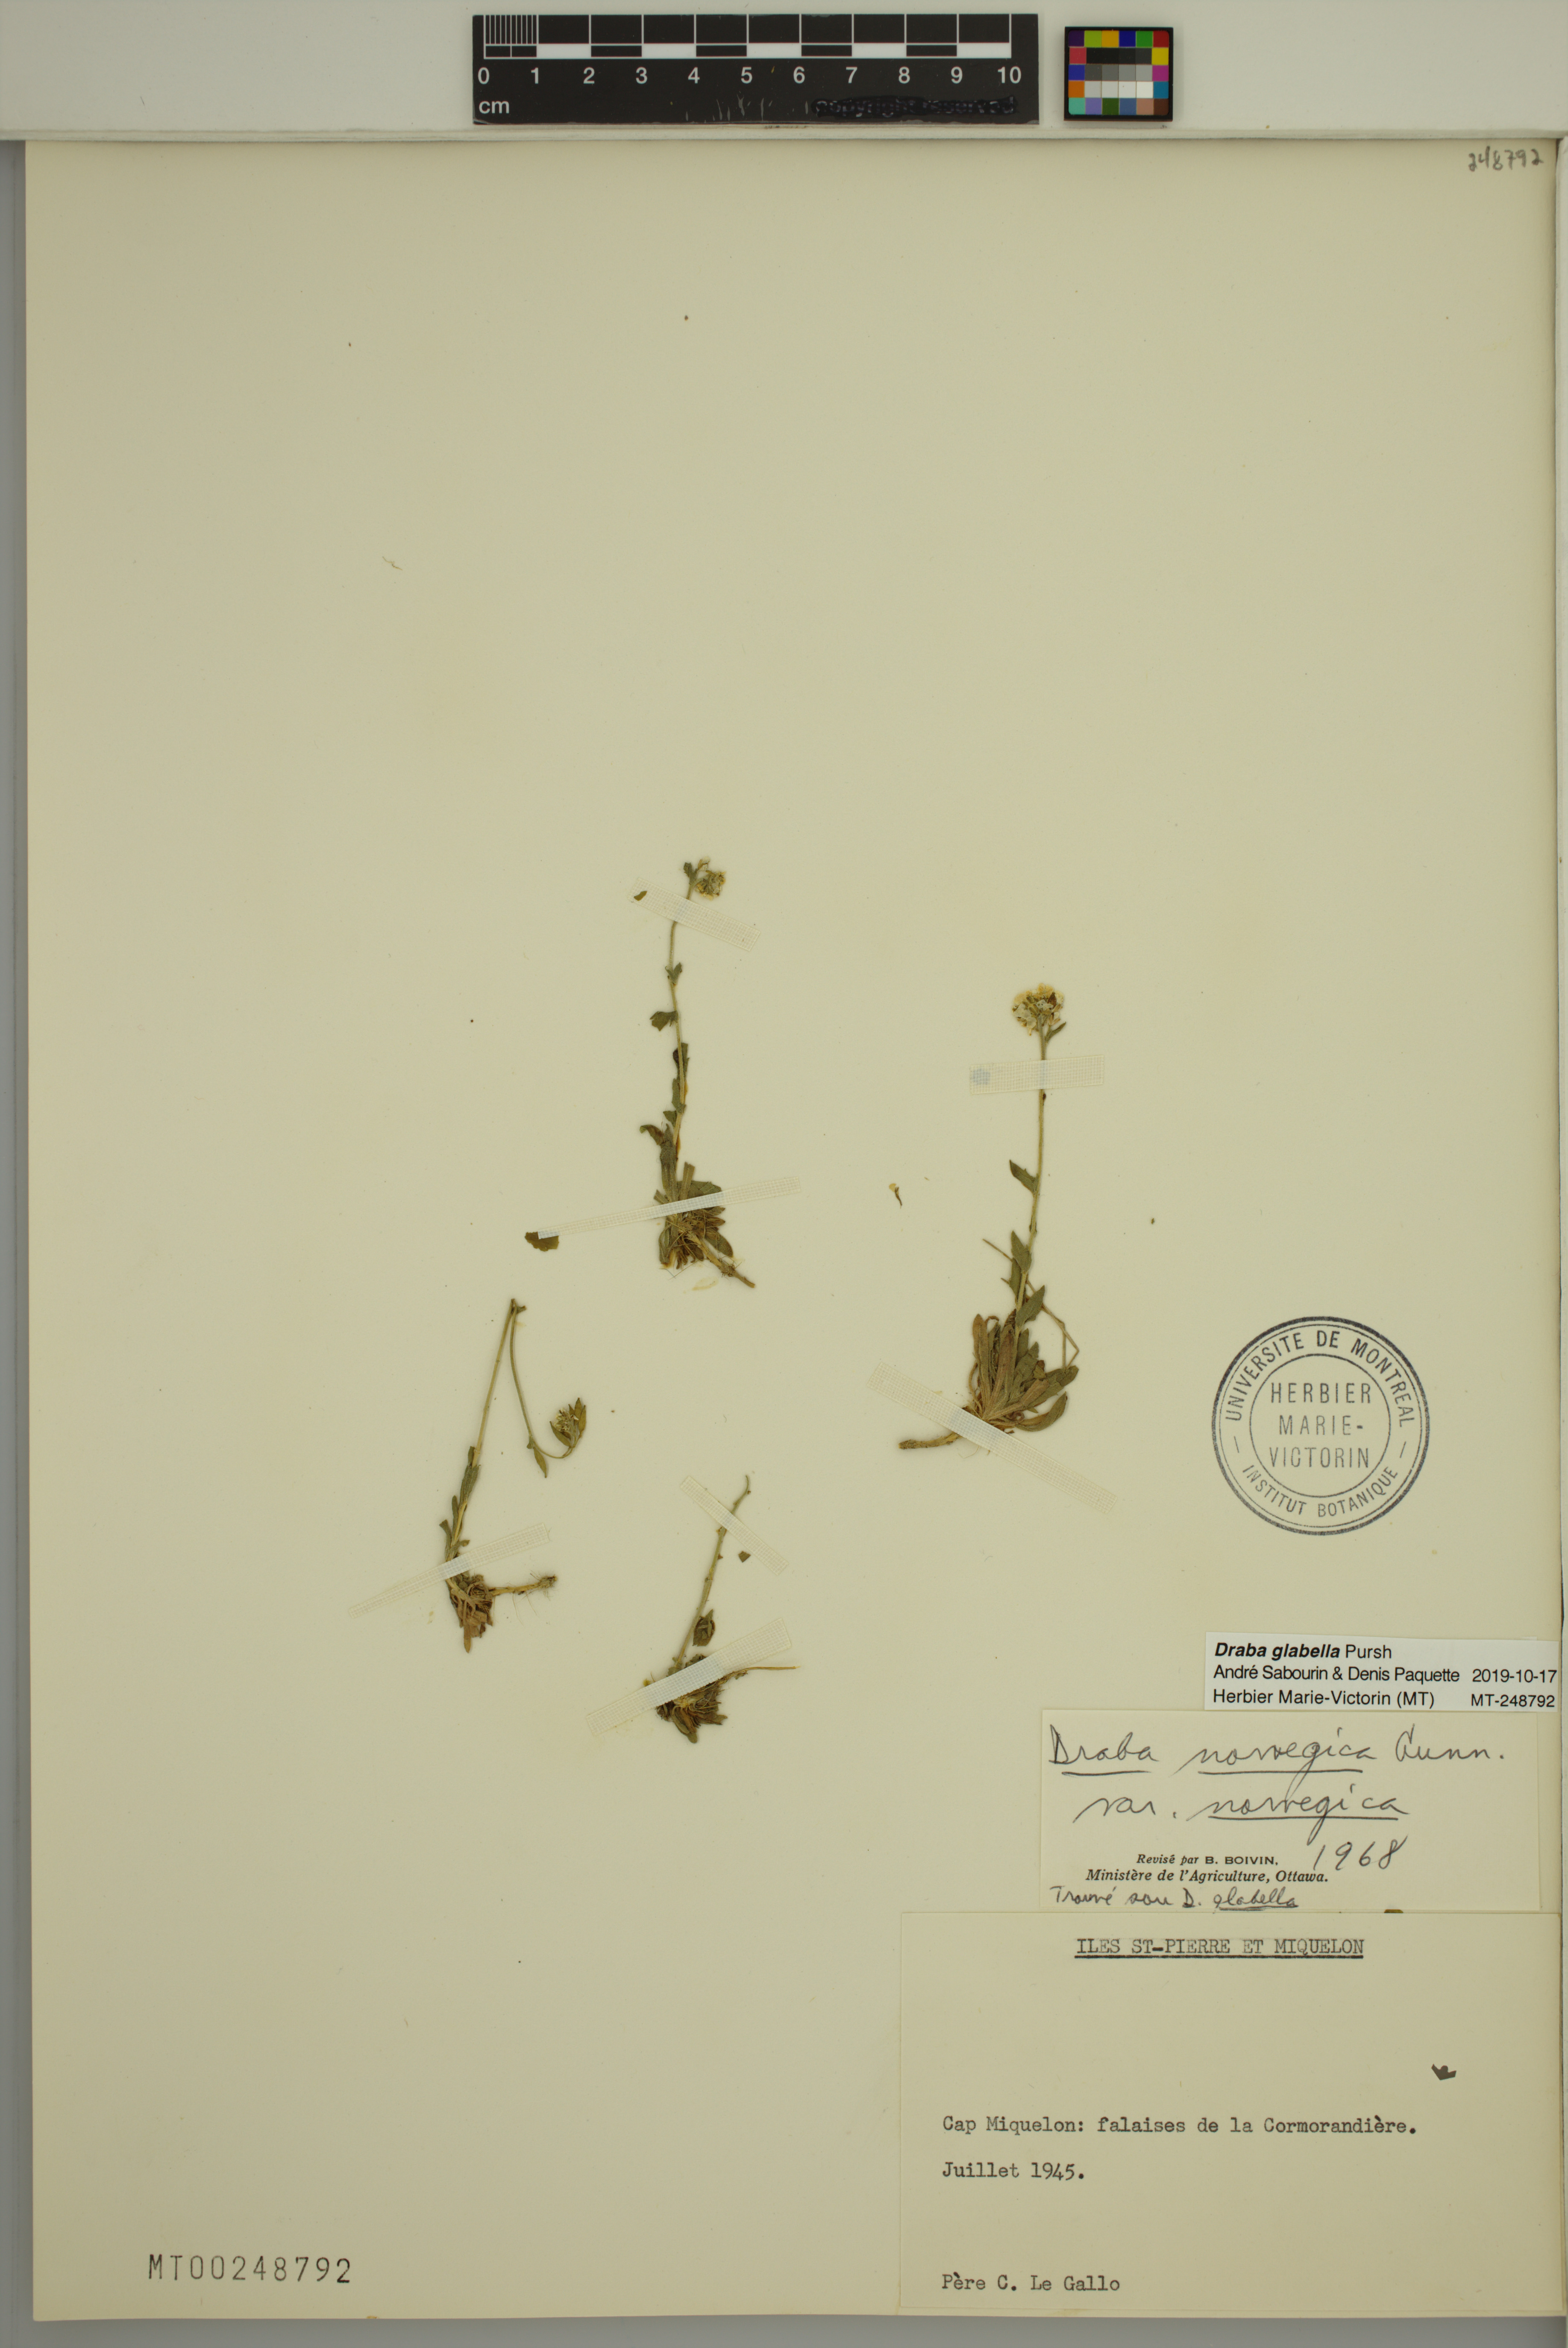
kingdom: Plantae
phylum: Tracheophyta
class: Magnoliopsida
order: Brassicales
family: Brassicaceae
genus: Draba
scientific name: Draba glabella
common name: Glaucous draba
